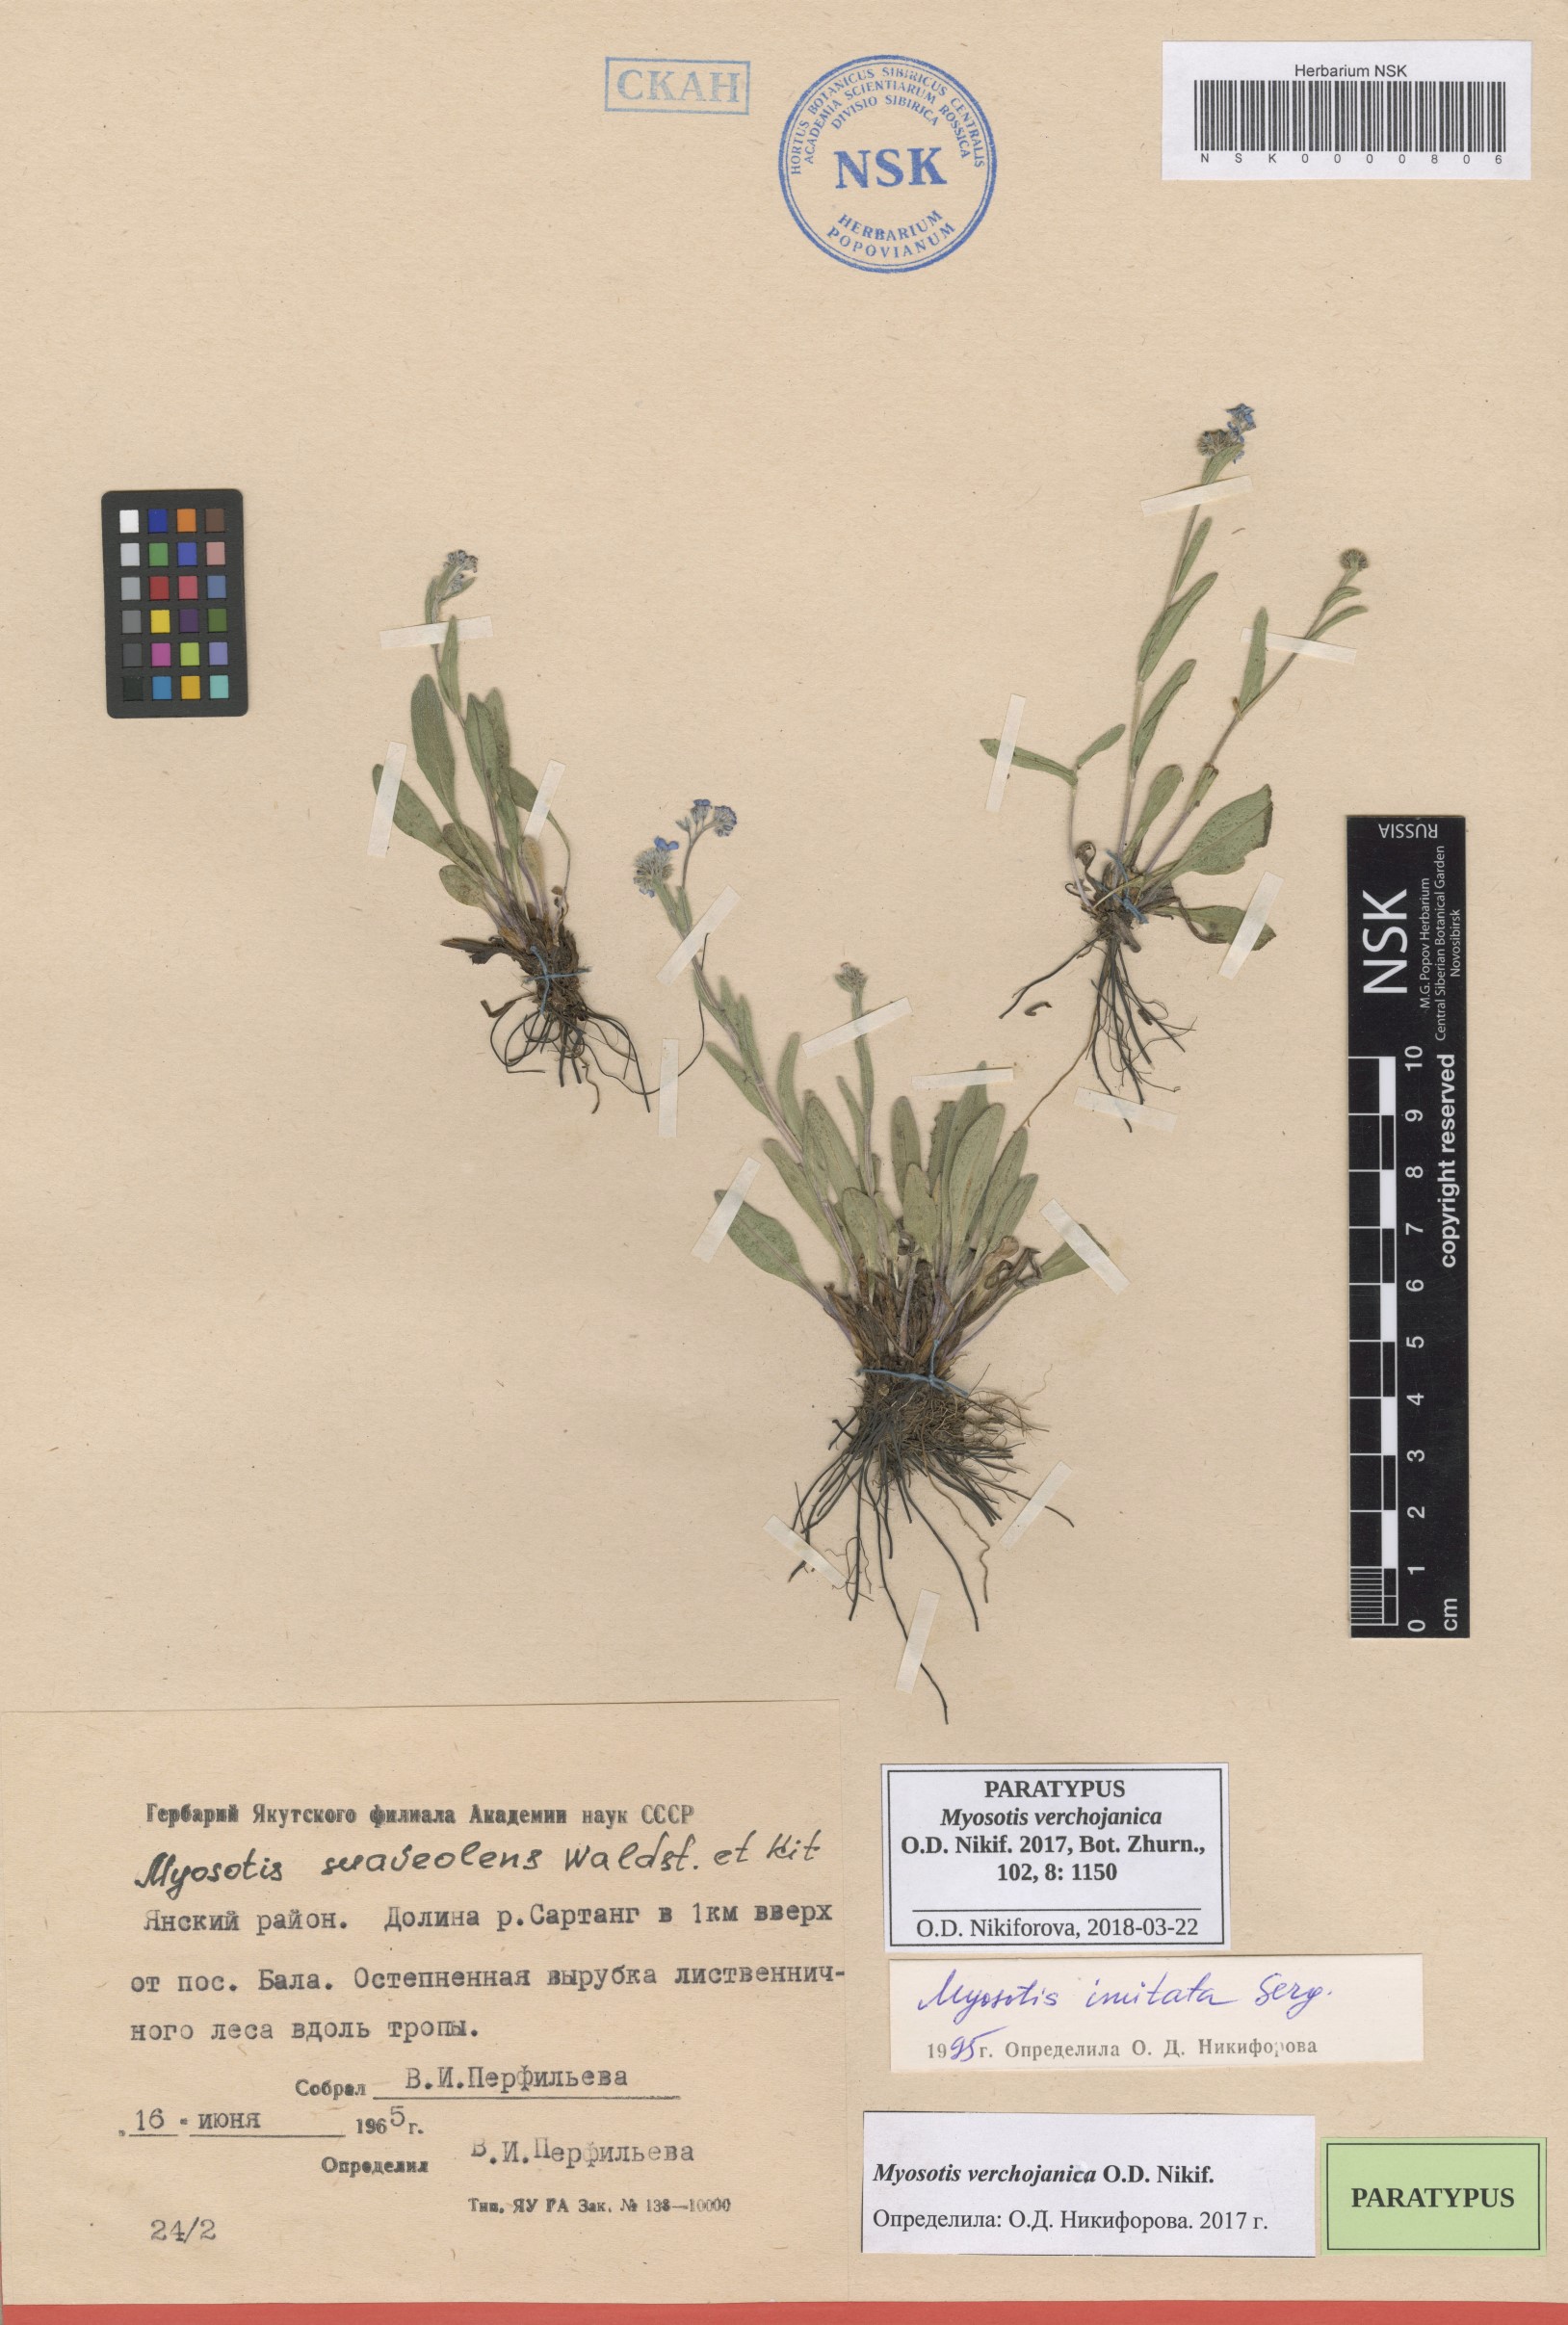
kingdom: Plantae
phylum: Tracheophyta
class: Magnoliopsida
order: Boraginales
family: Boraginaceae
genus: Myosotis
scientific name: Myosotis
